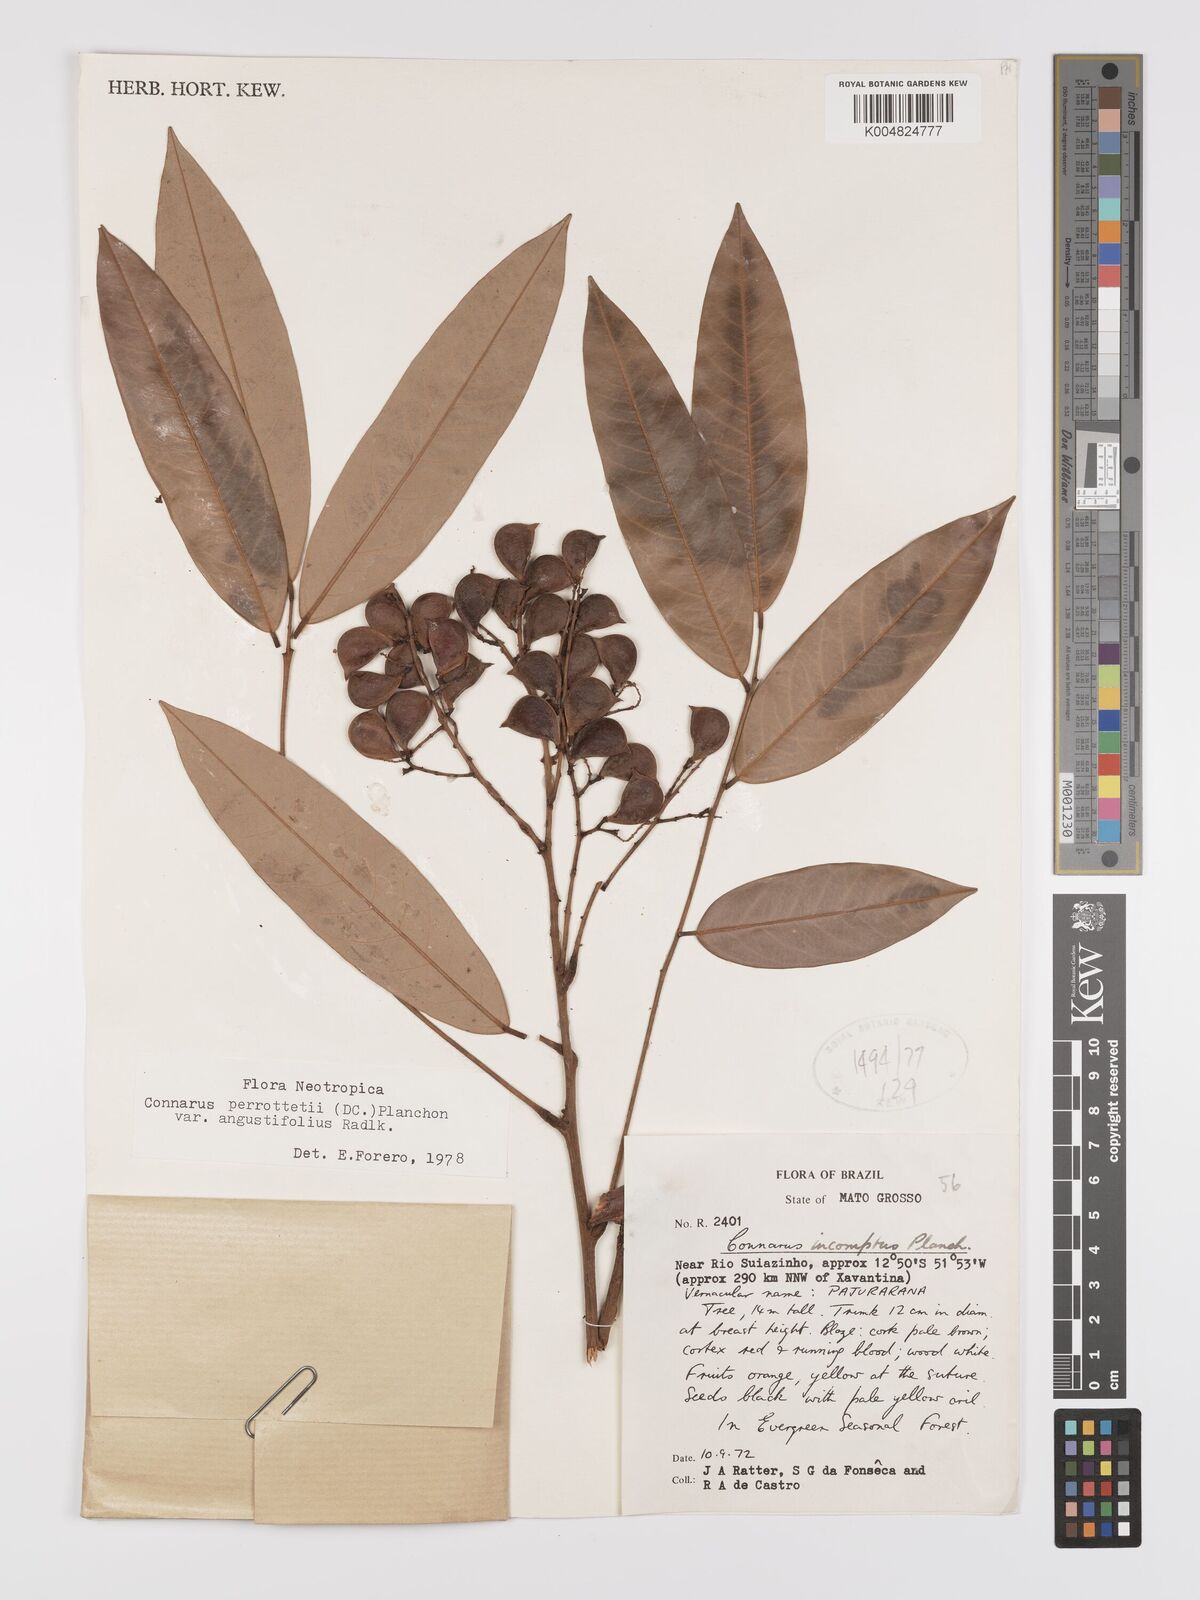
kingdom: Plantae
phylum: Tracheophyta
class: Magnoliopsida
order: Oxalidales
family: Connaraceae
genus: Connarus
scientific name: Connarus perrottetii
